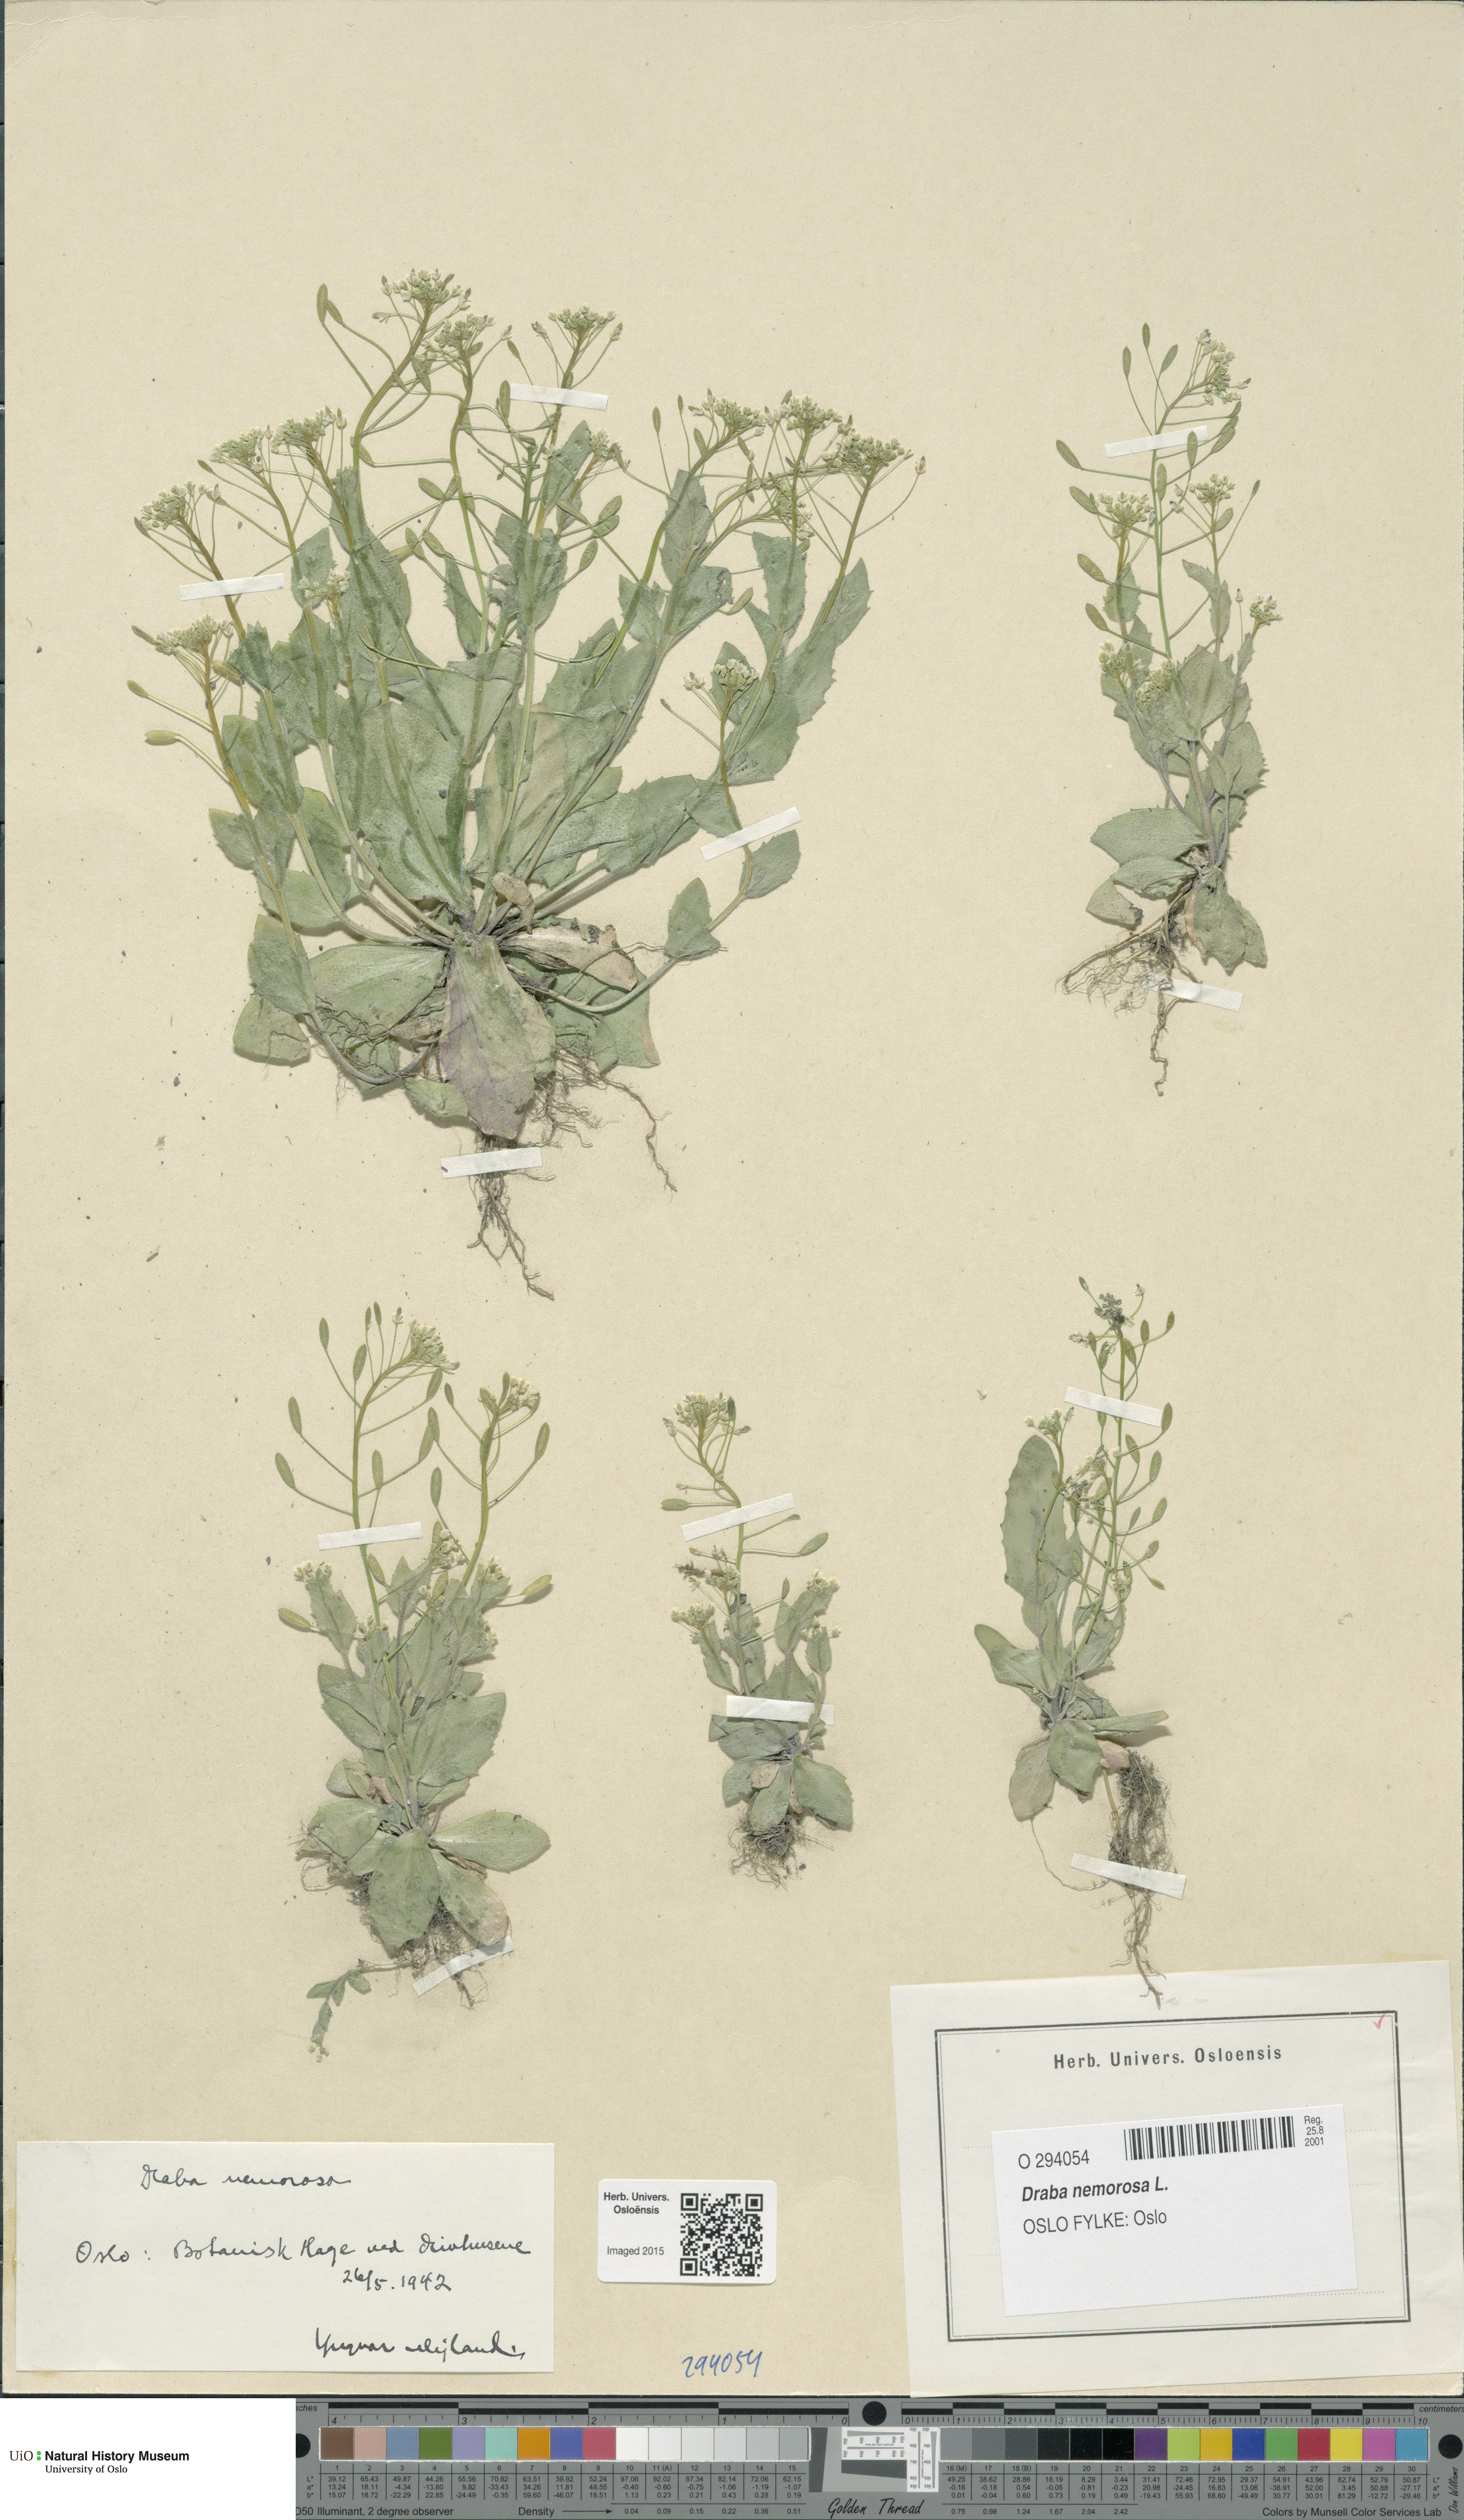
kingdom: Plantae
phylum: Tracheophyta
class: Magnoliopsida
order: Brassicales
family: Brassicaceae
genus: Draba
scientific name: Draba nemorosa
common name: Wood whitlow-grass
